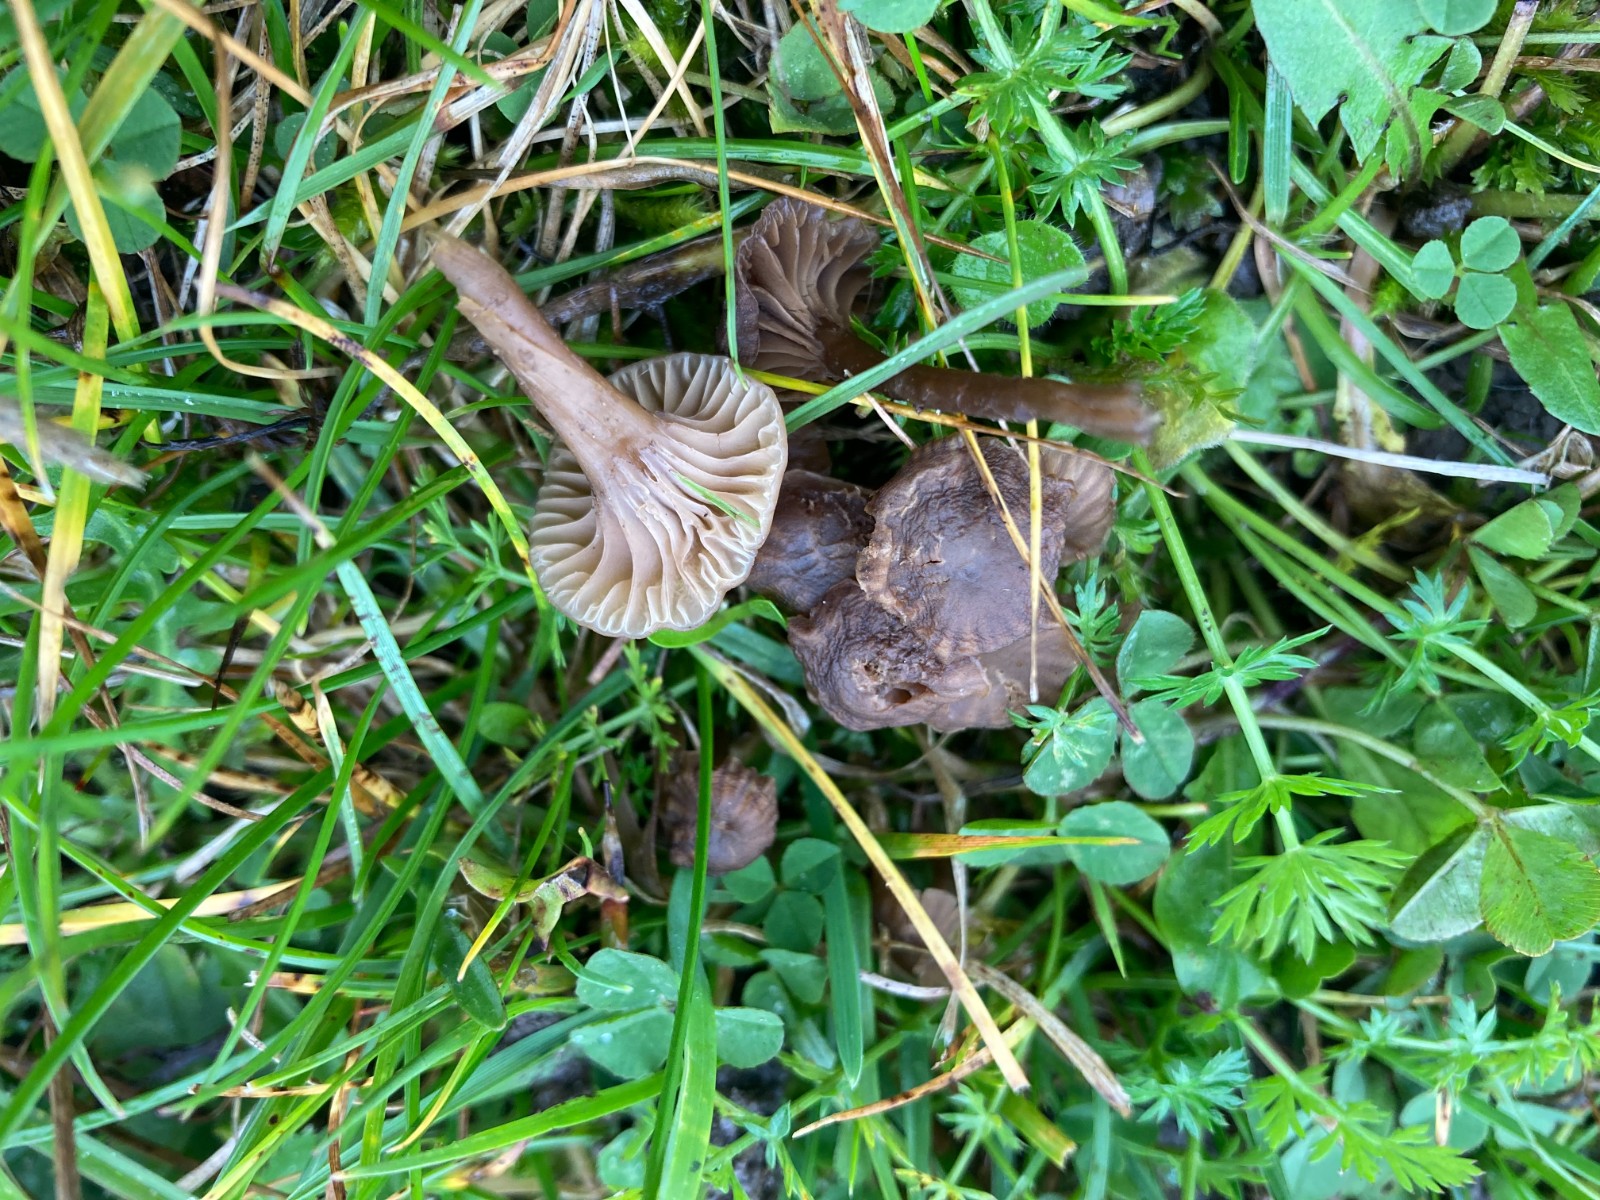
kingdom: Fungi
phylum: Basidiomycota
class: Agaricomycetes
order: Agaricales
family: Clavariaceae
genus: Hodophilus
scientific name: Hodophilus subfoetens
